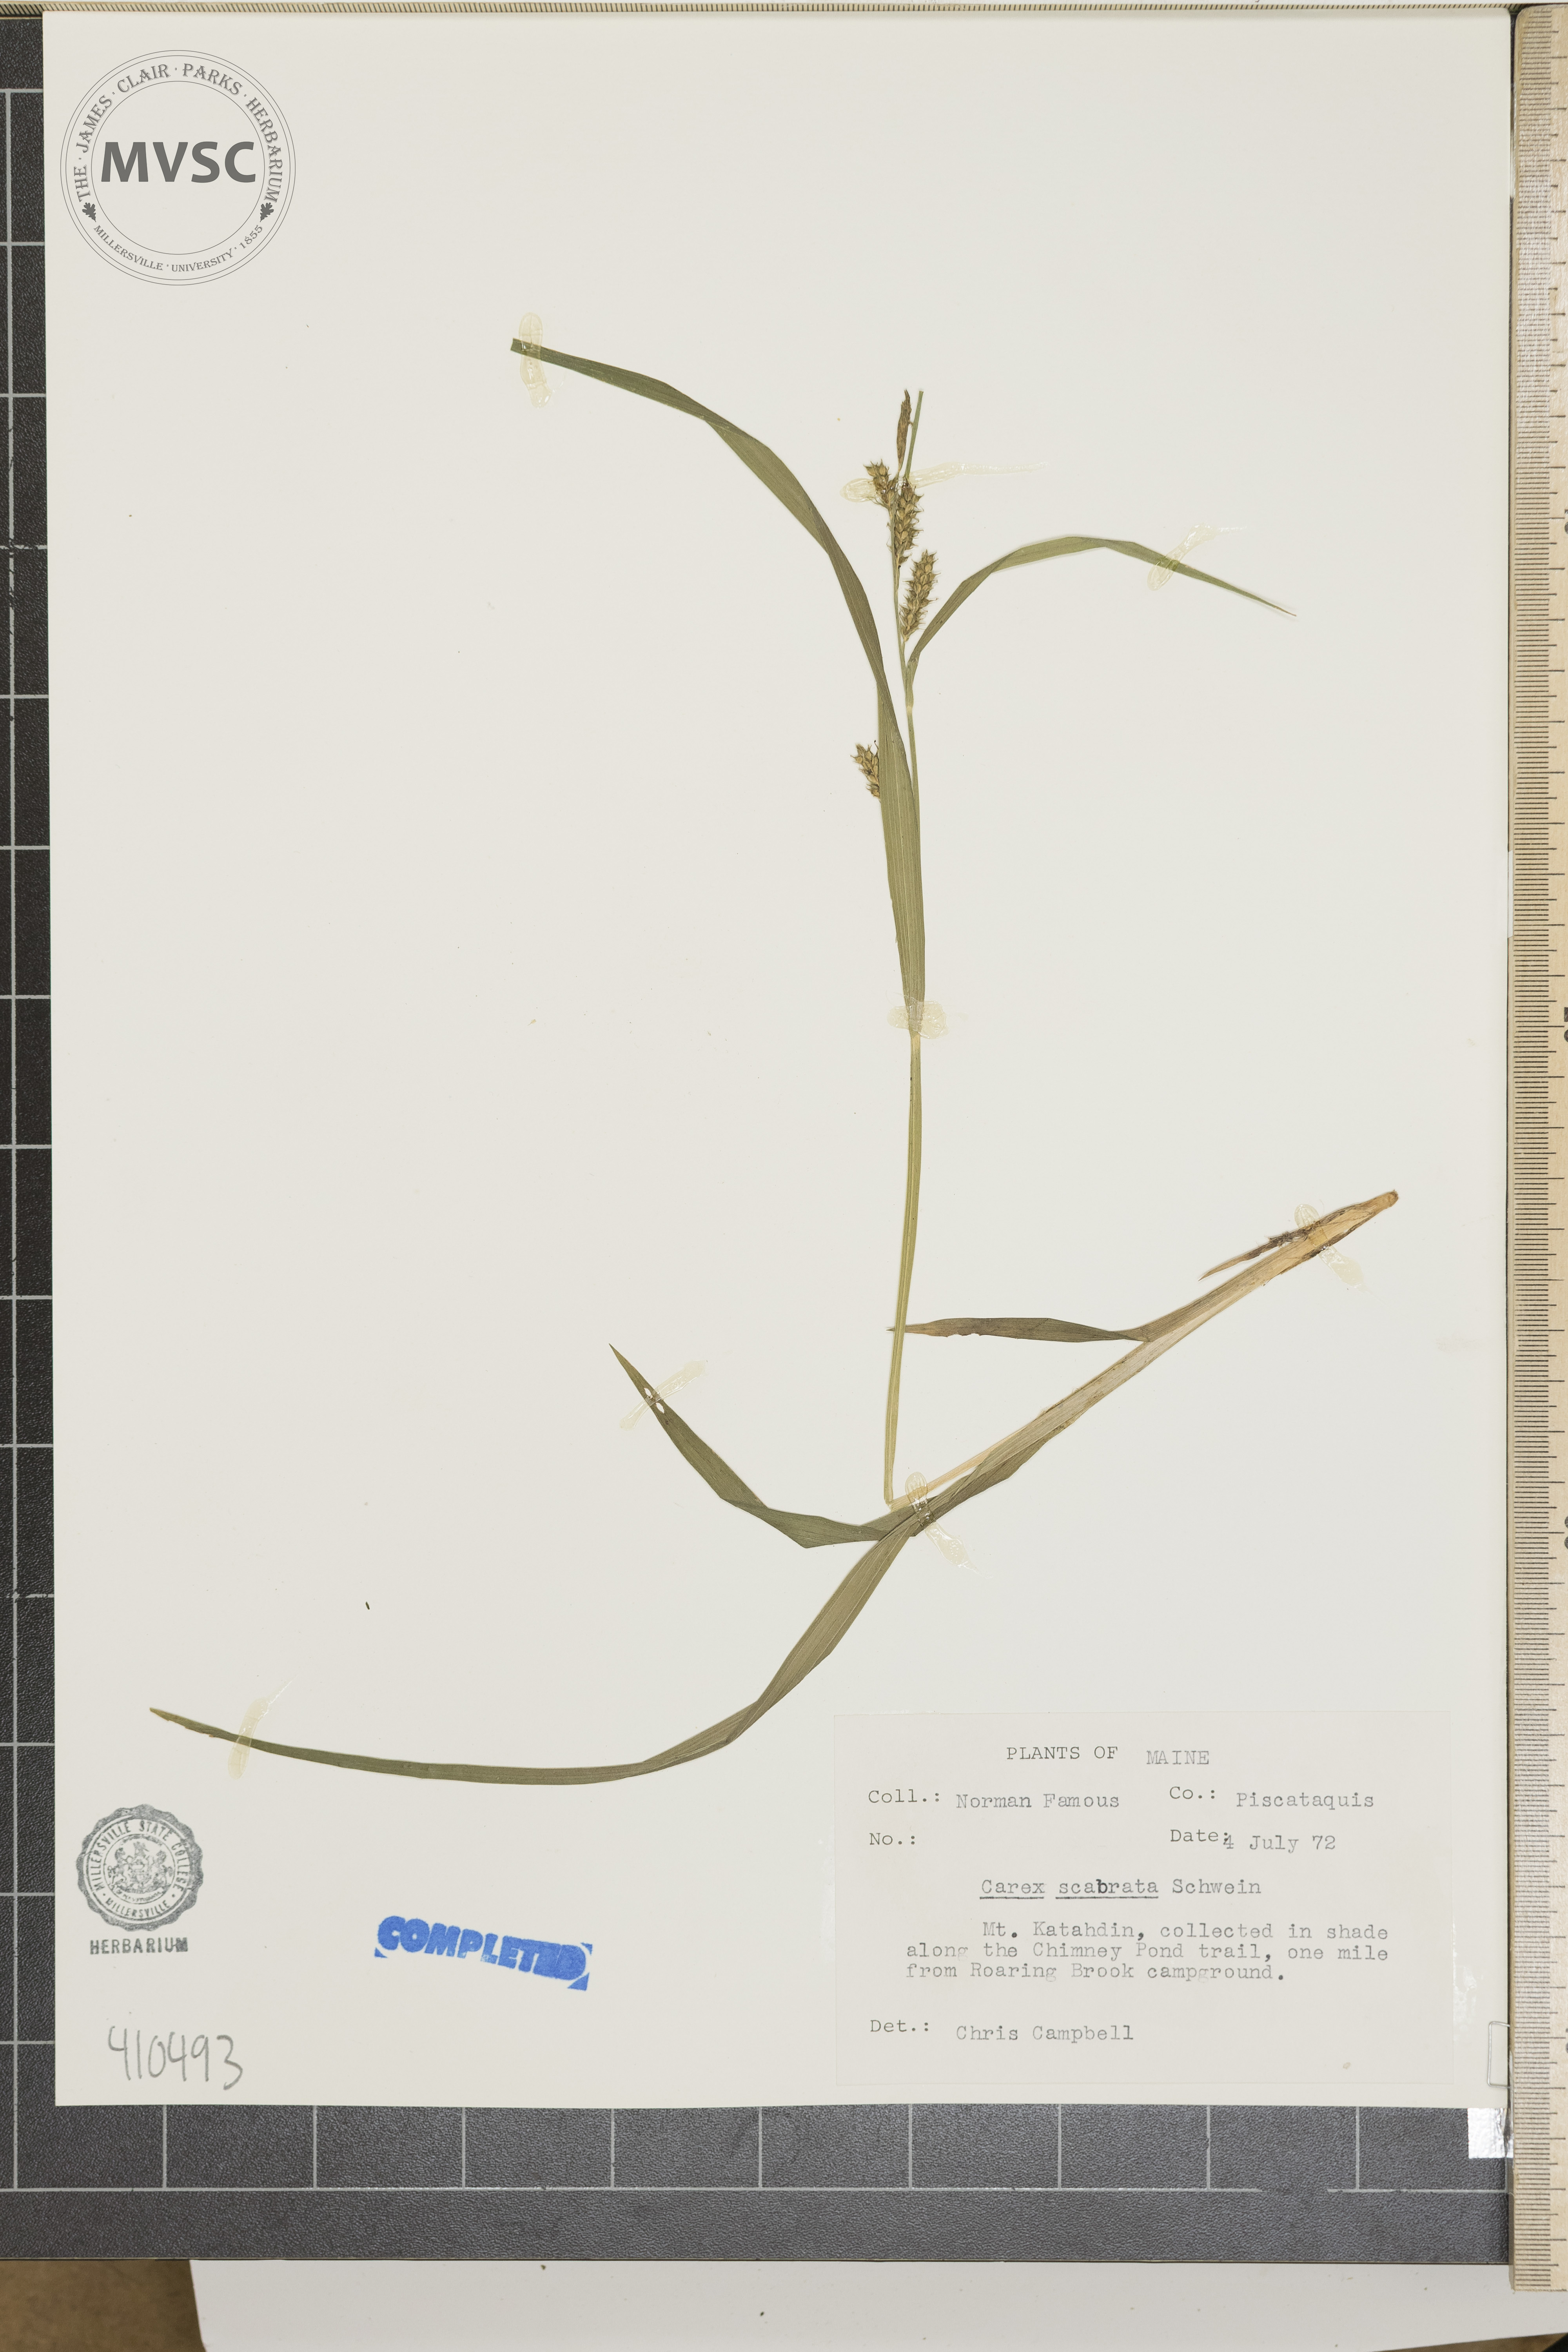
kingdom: Plantae
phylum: Tracheophyta
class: Liliopsida
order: Poales
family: Cyperaceae
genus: Carex
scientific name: Carex scabrata
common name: Eastern rough sedge
